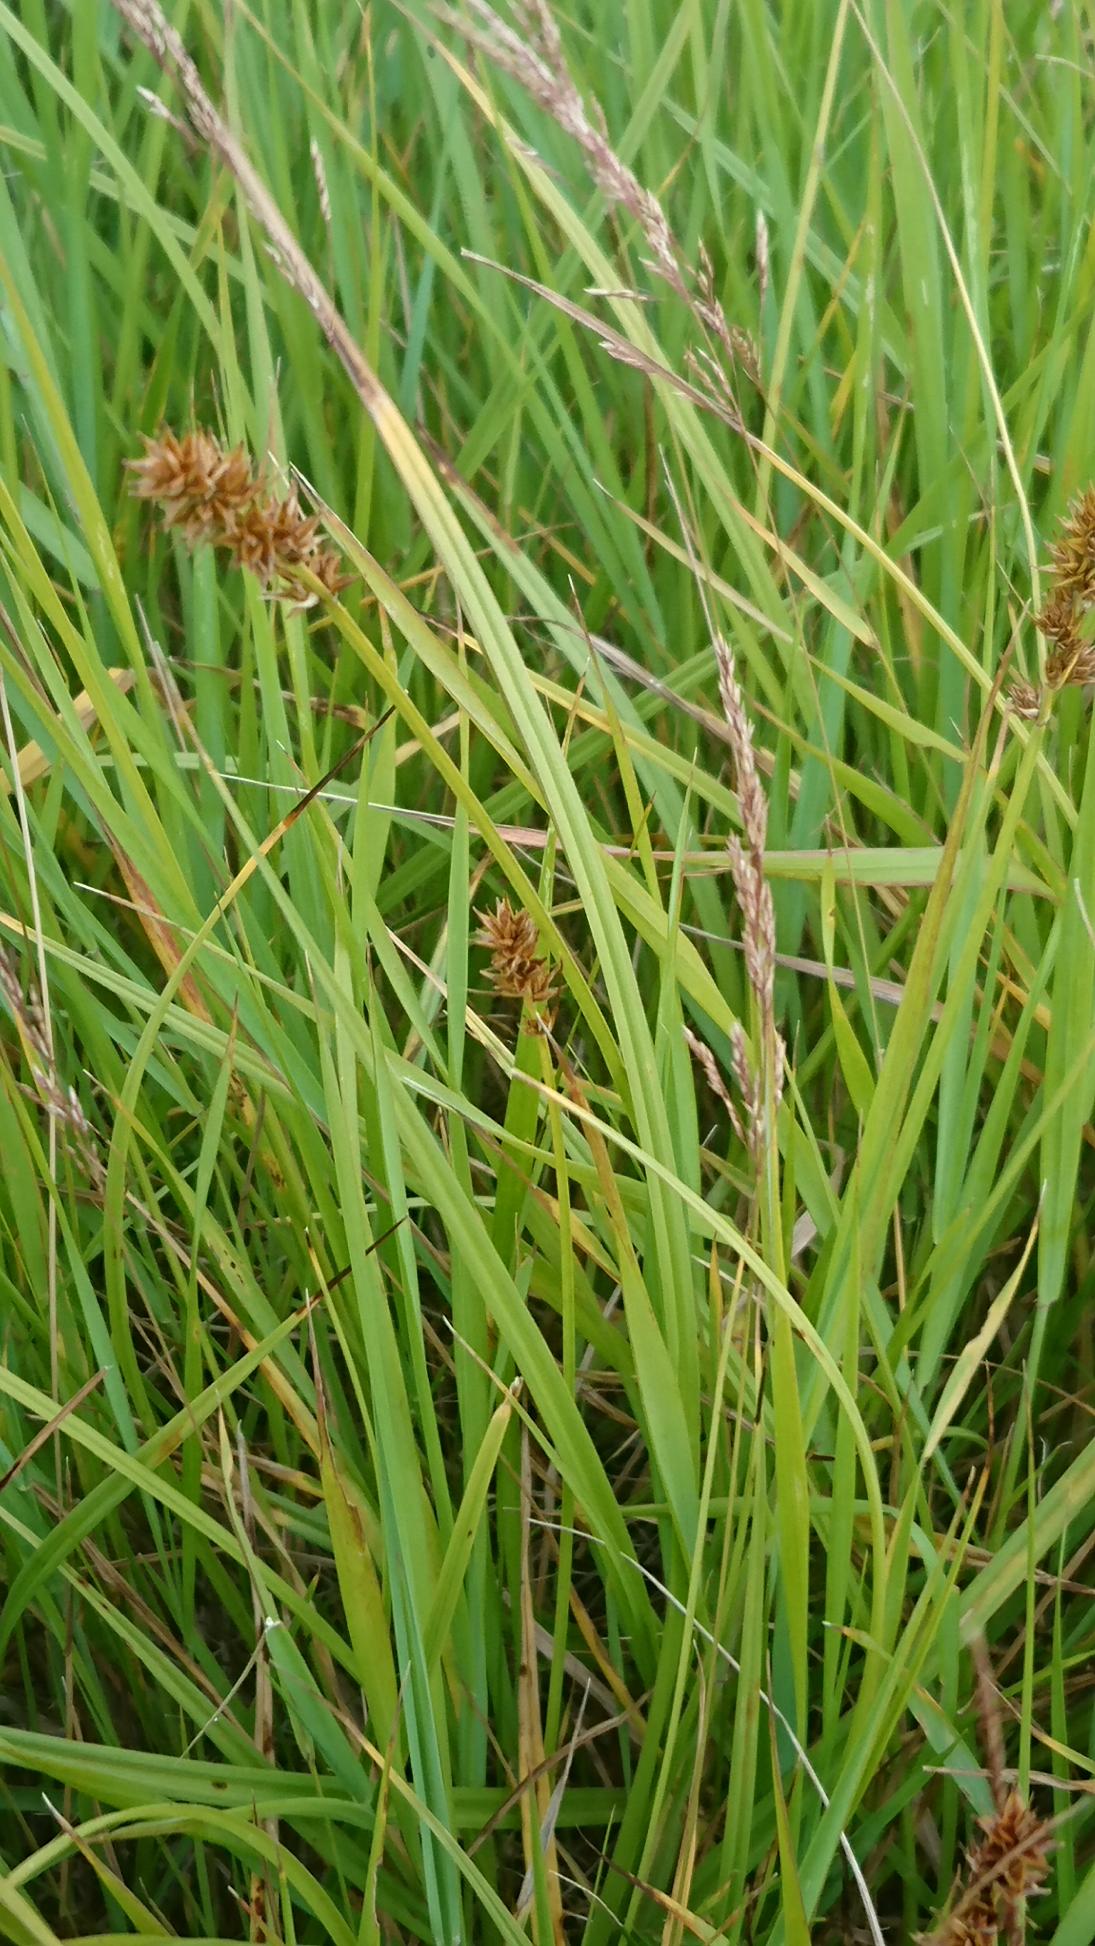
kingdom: Plantae
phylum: Tracheophyta
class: Liliopsida
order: Poales
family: Cyperaceae
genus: Carex
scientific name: Carex otrubae
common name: Sylt-star
